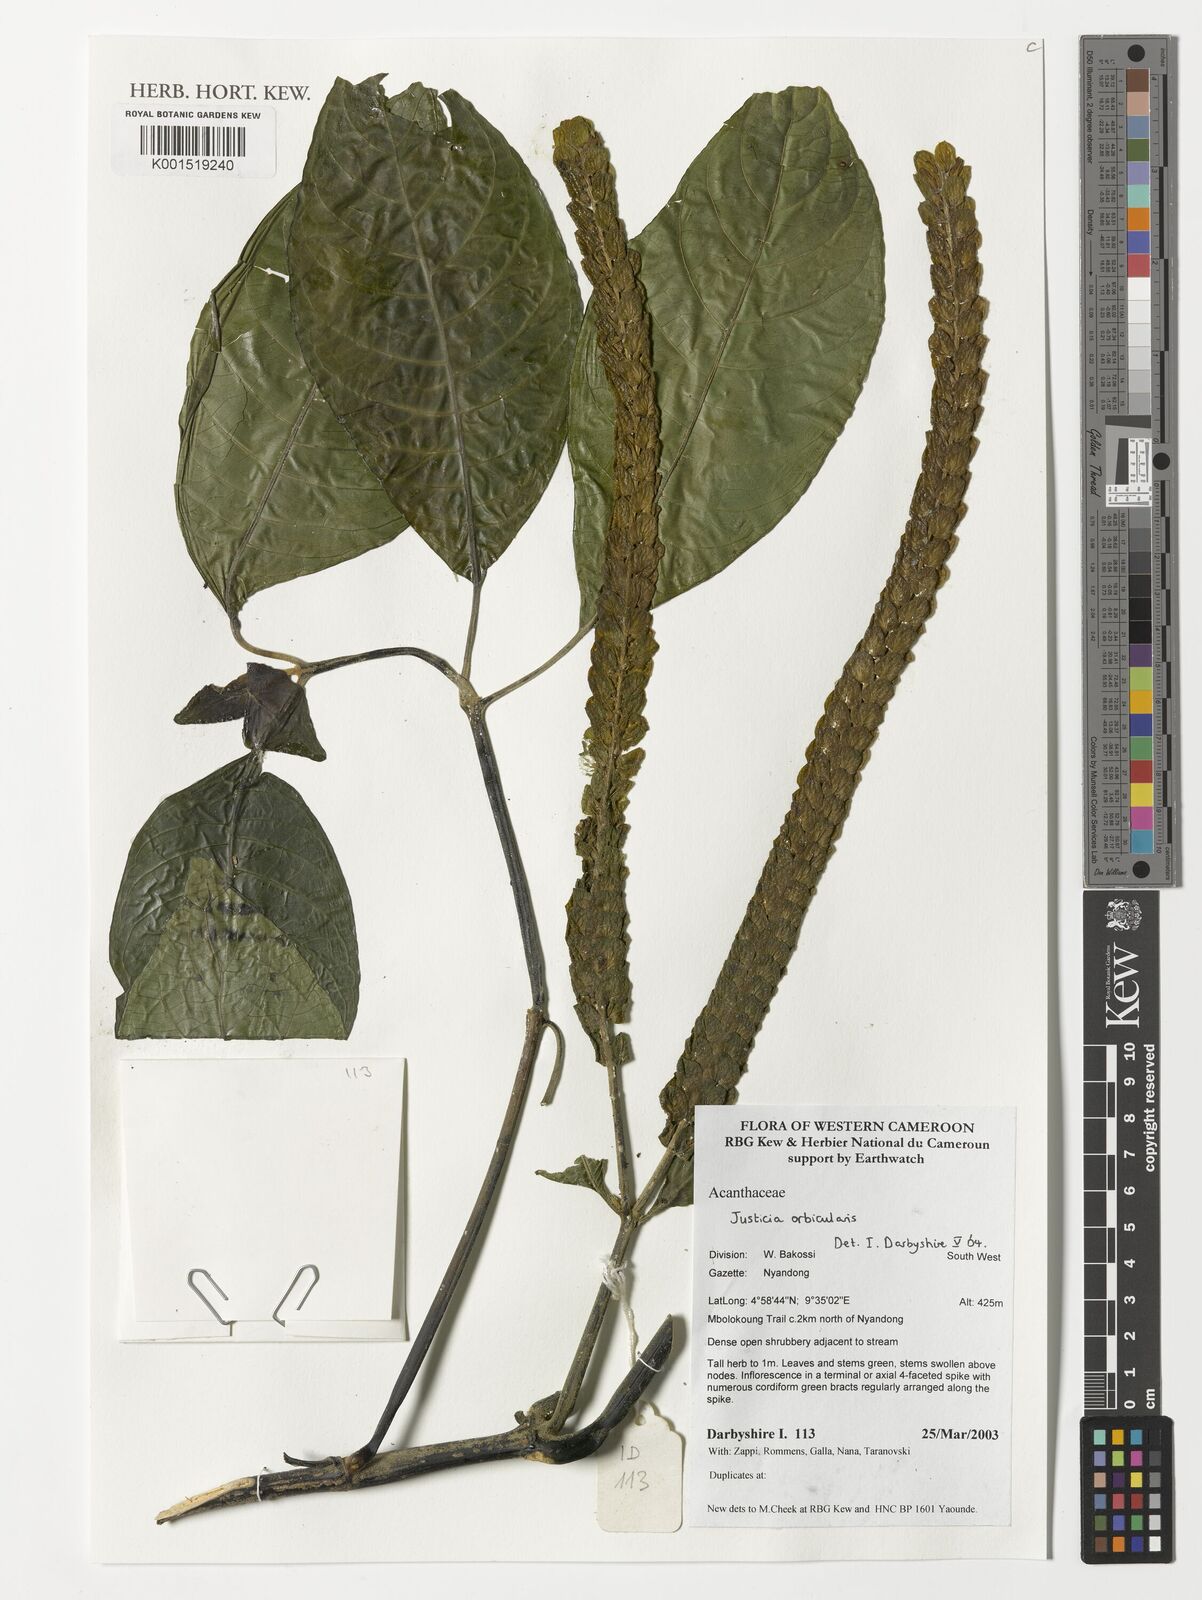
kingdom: Plantae
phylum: Tracheophyta
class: Magnoliopsida
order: Lamiales
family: Acanthaceae
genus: Justicia
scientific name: Justicia orbicularis
